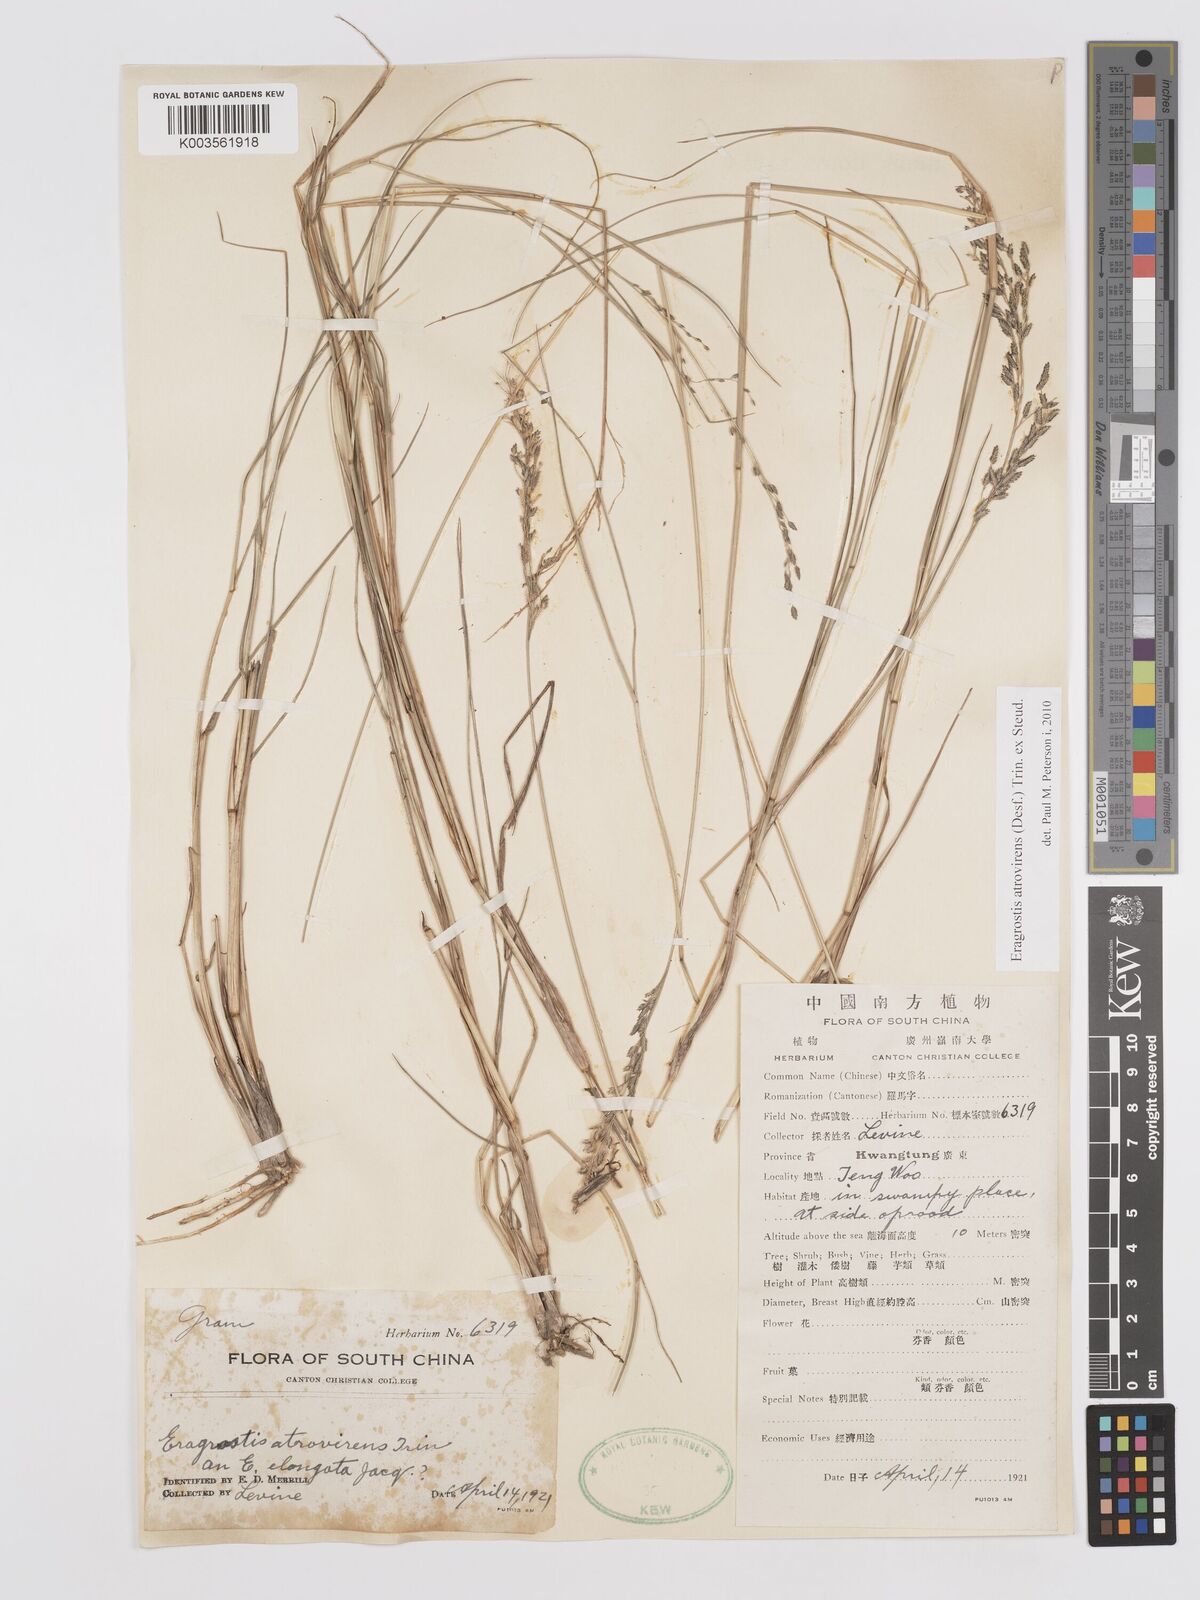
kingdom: Plantae
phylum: Tracheophyta
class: Liliopsida
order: Poales
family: Poaceae
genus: Eragrostis
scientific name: Eragrostis atrovirens
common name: Thalia lovegrass
